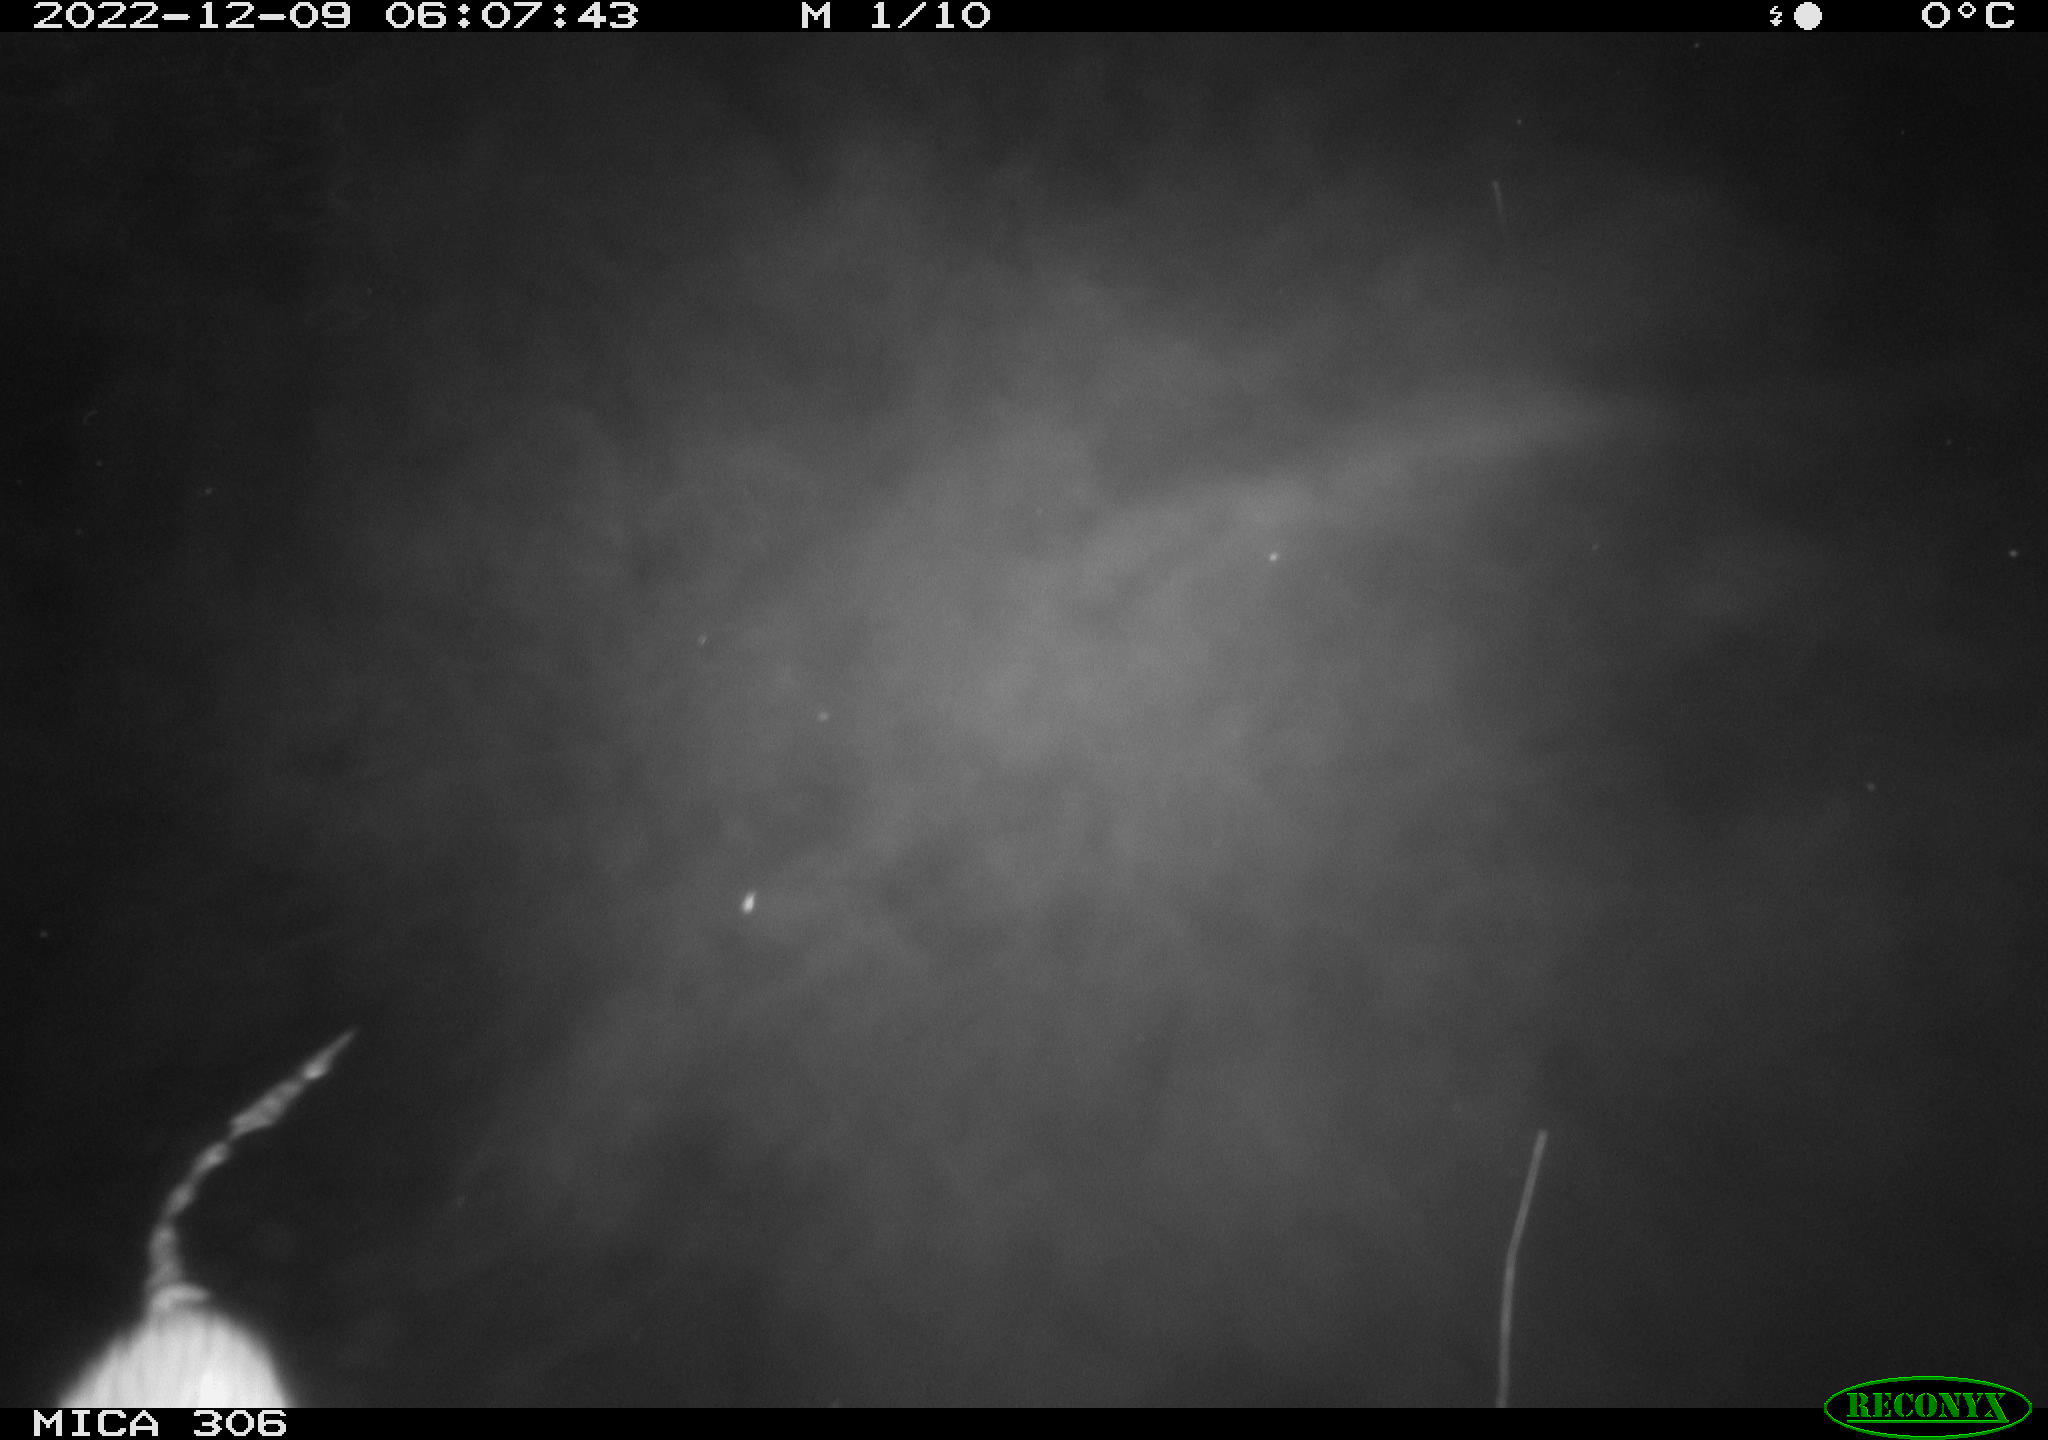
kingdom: Animalia
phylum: Chordata
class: Mammalia
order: Rodentia
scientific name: Rodentia
